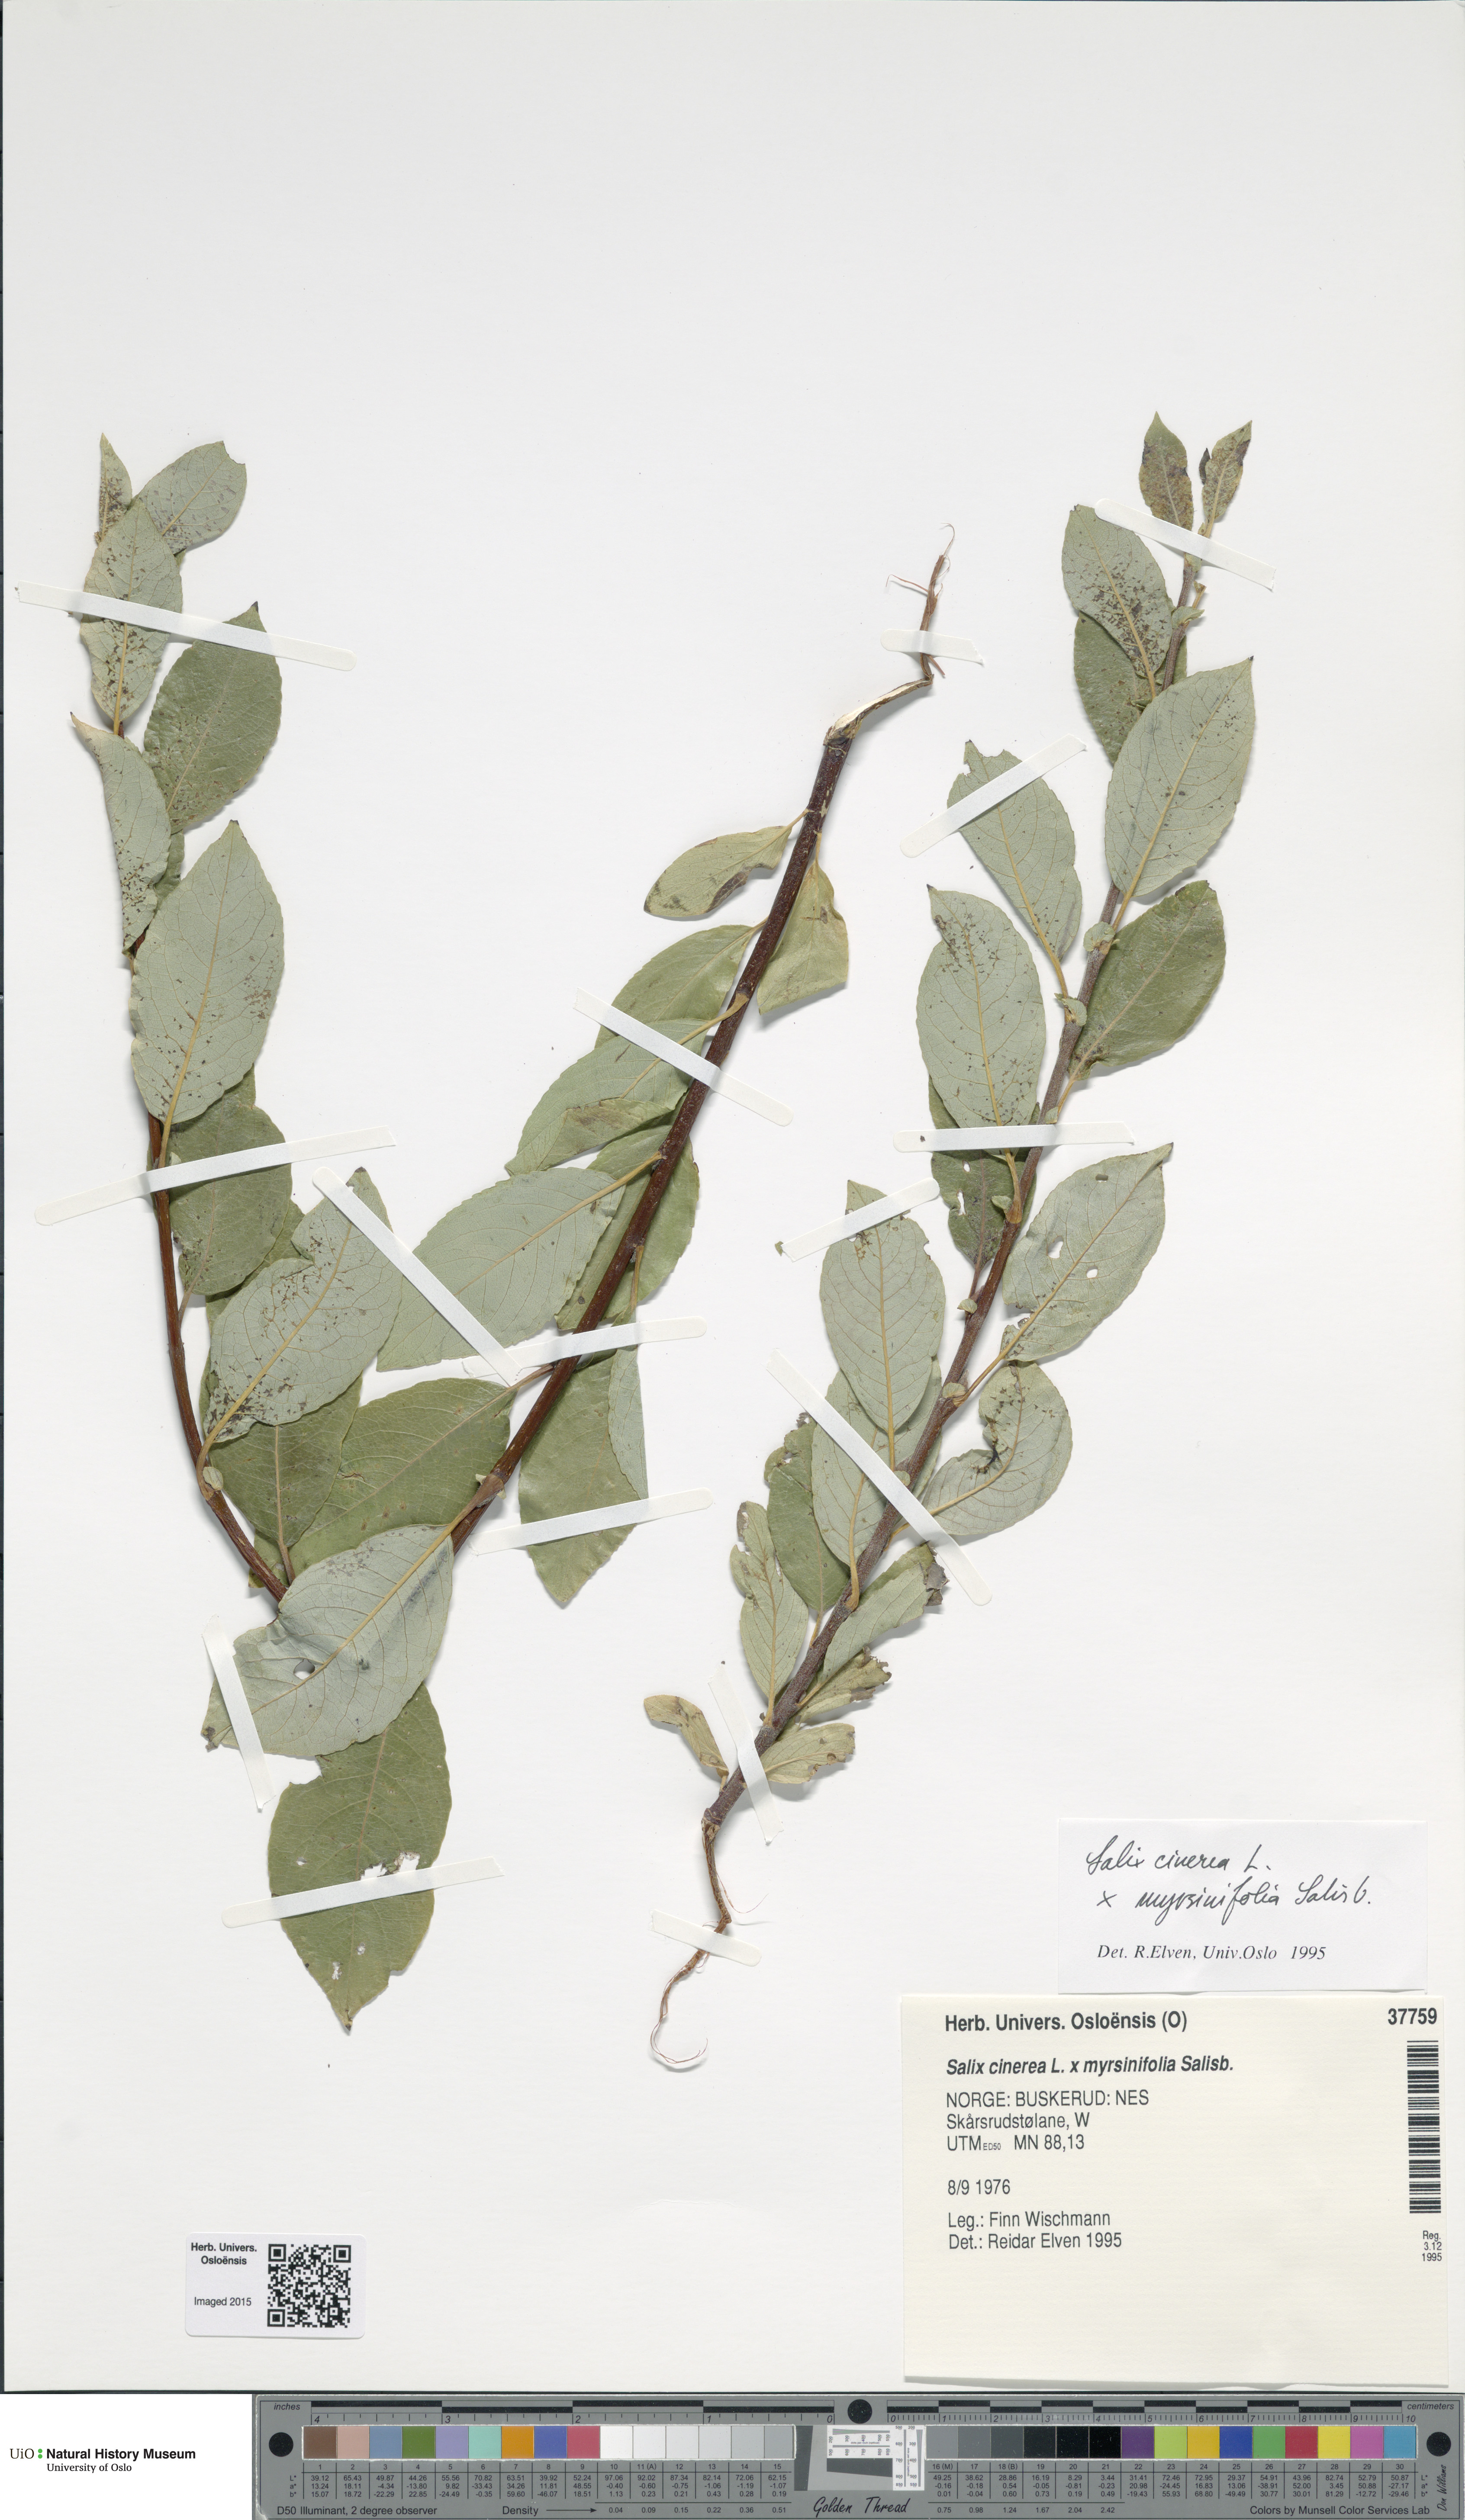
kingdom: Plantae
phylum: Tracheophyta
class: Magnoliopsida
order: Malpighiales
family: Salicaceae
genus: Salix
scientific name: Salix
